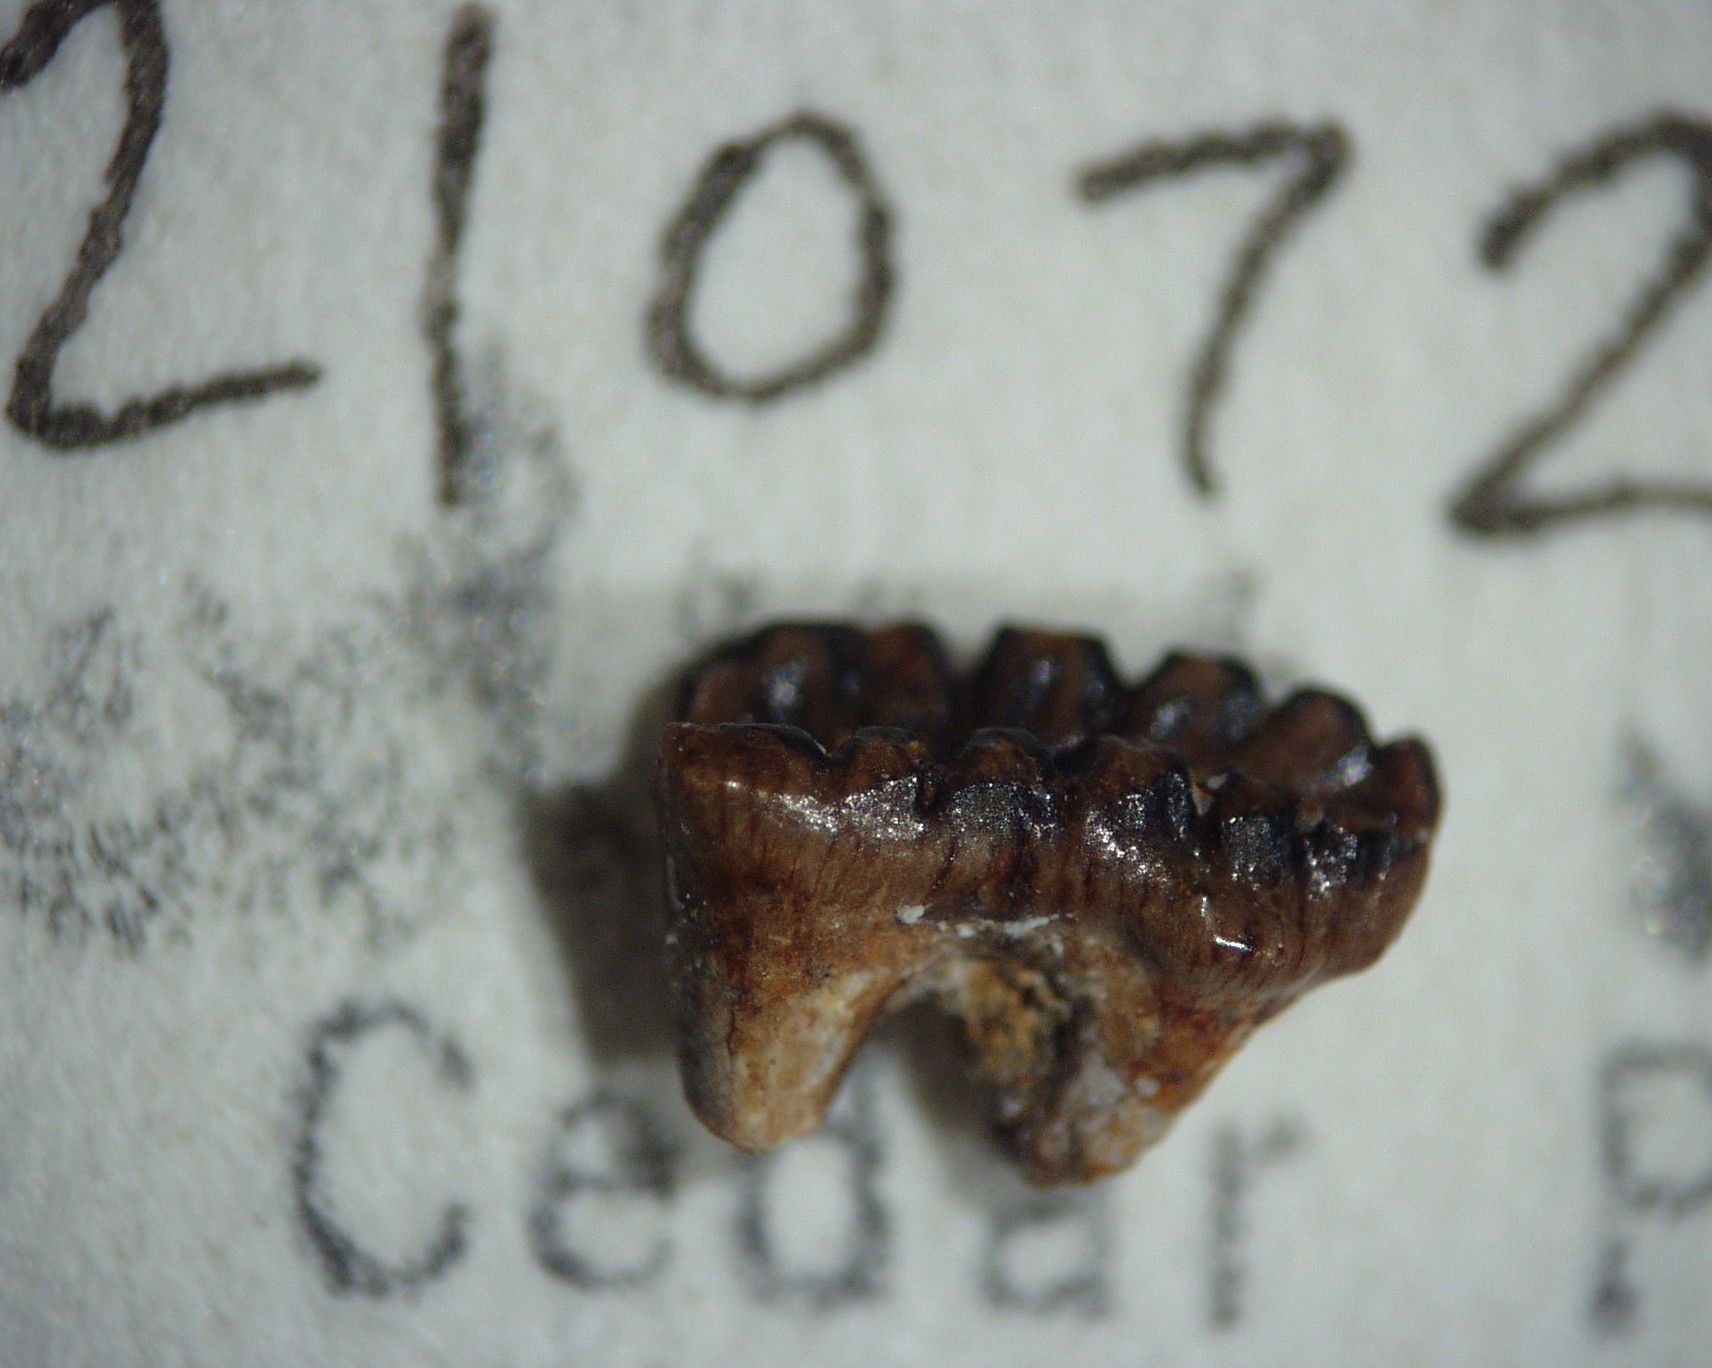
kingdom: Animalia
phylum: Chordata
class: Mammalia
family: Ptilodontidae
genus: Ptilodus
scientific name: Ptilodus montanus
